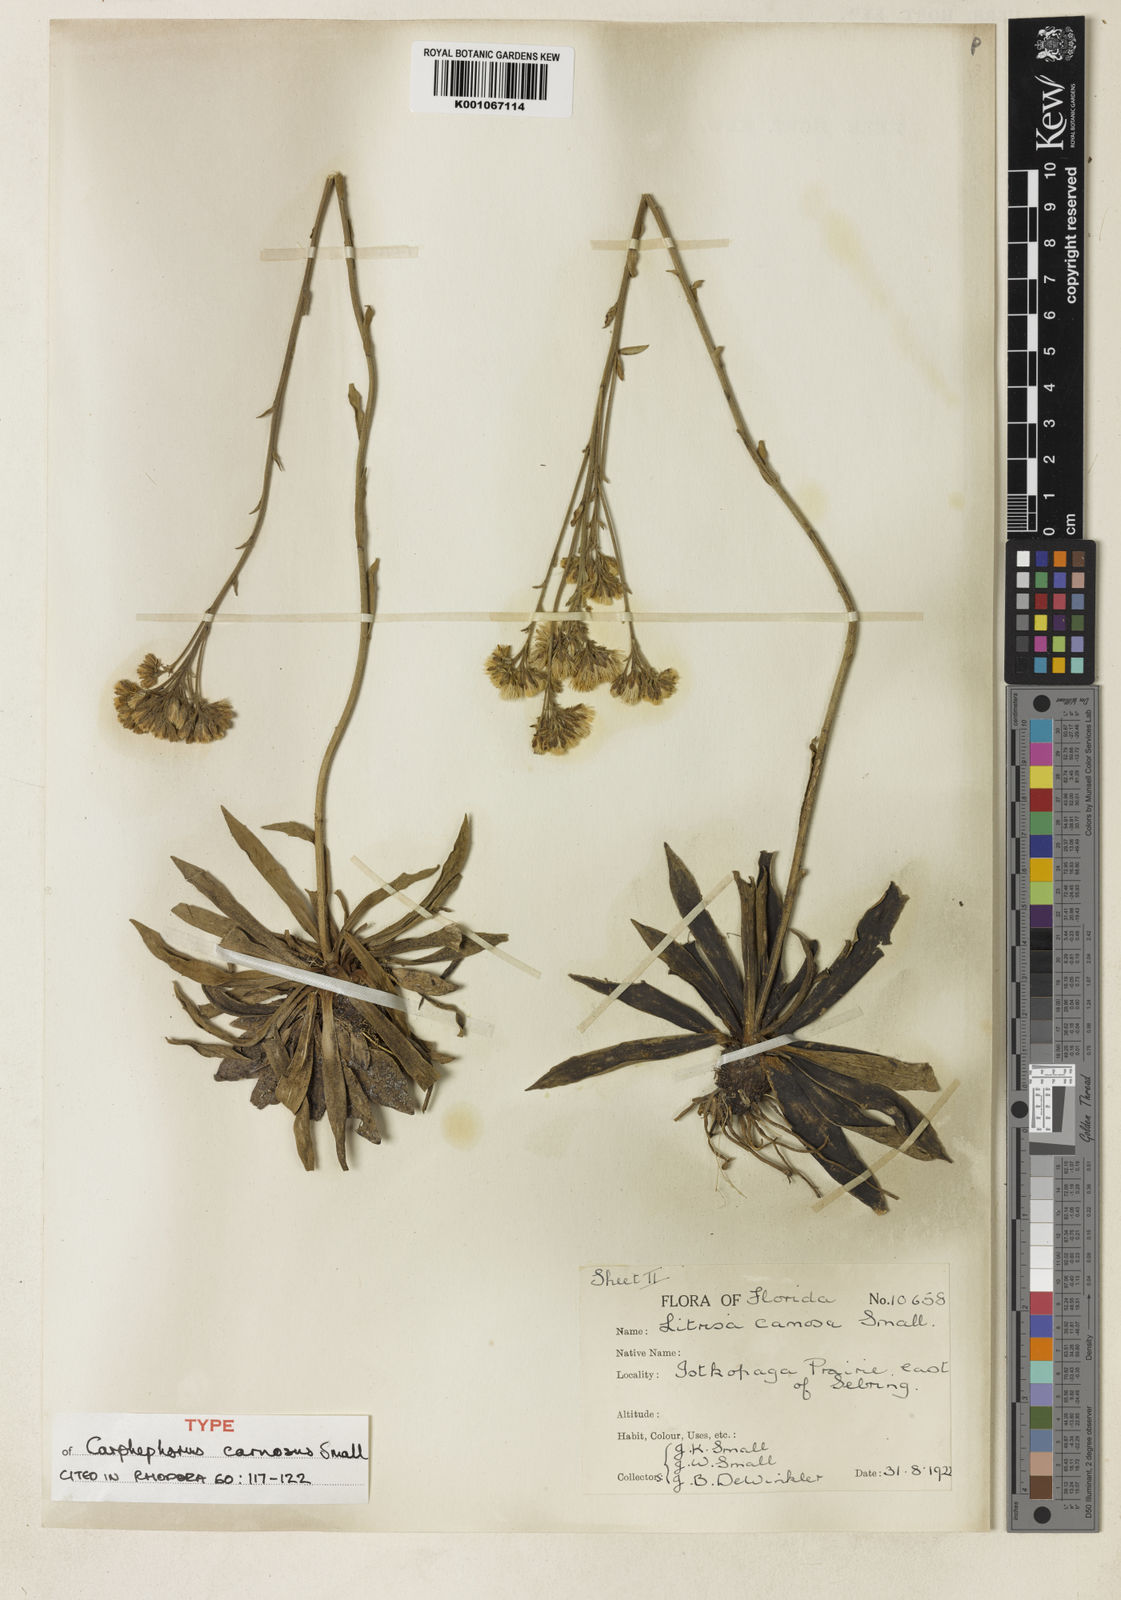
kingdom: Plantae
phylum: Tracheophyta
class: Magnoliopsida
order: Asterales
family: Asteraceae
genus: Carphephorus
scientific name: Carphephorus carnosus
